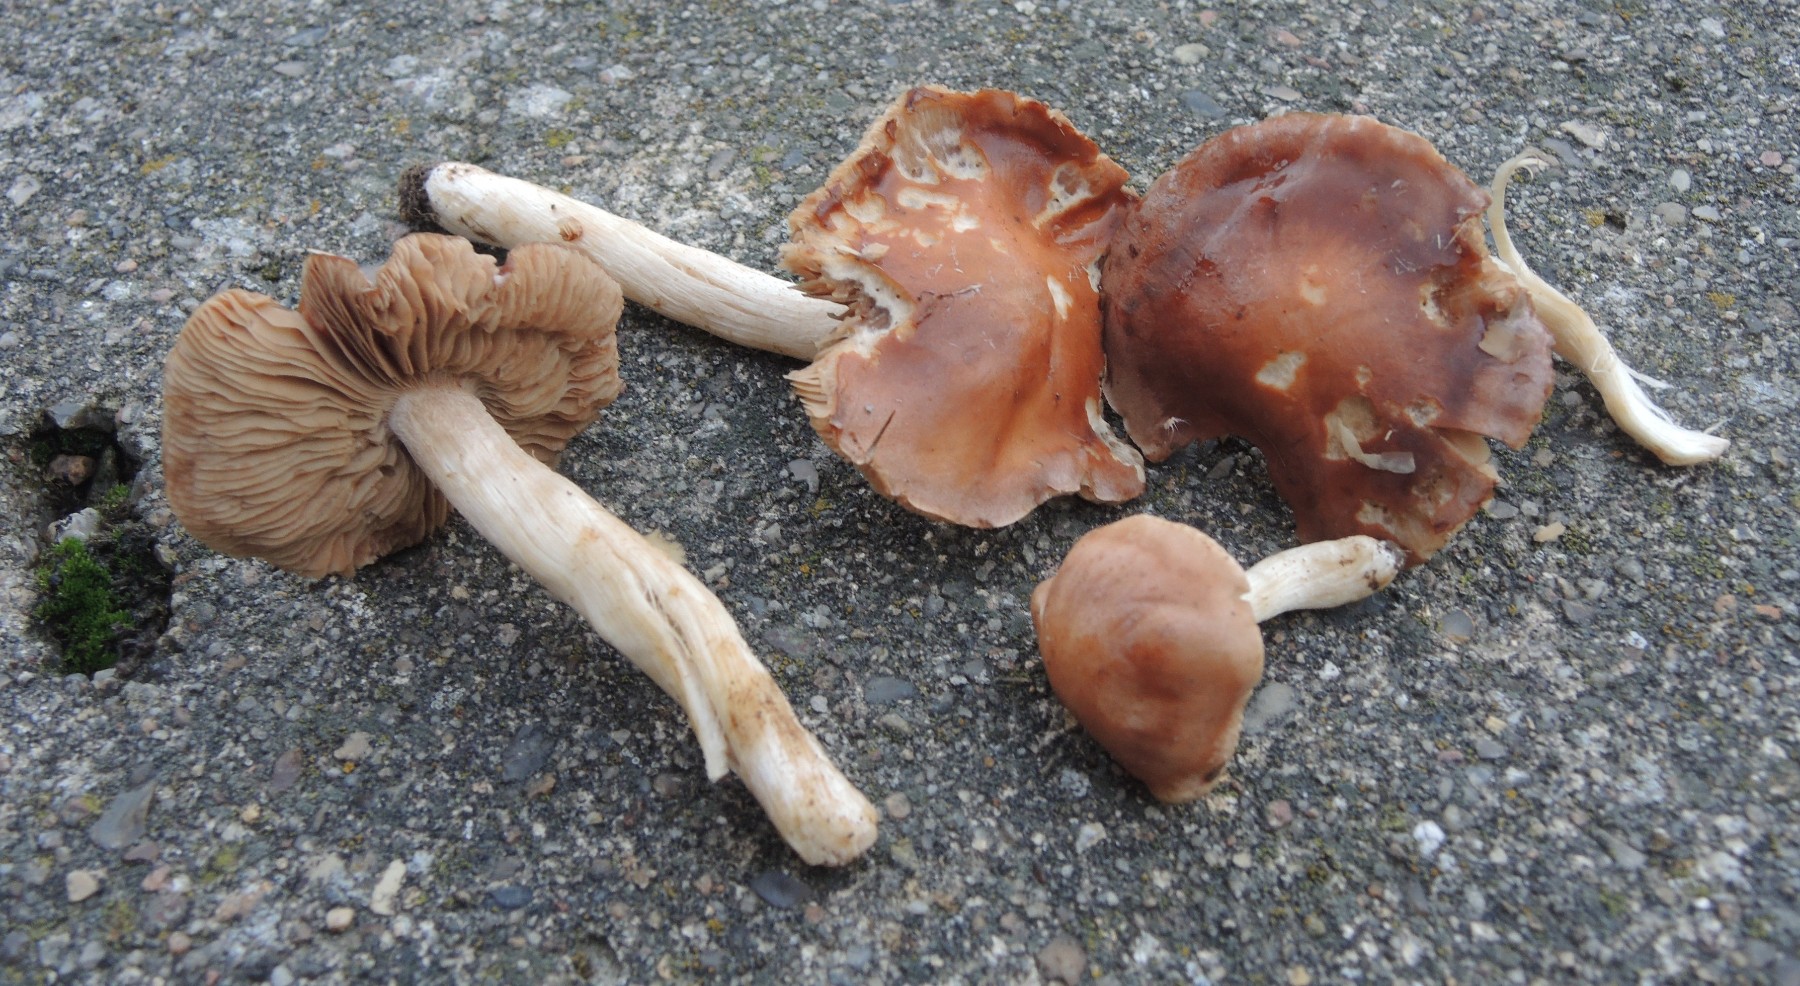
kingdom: Fungi
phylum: Basidiomycota
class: Agaricomycetes
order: Agaricales
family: Hymenogastraceae
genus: Hebeloma
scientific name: Hebeloma theobrominum
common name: rødbrun tåreblad
